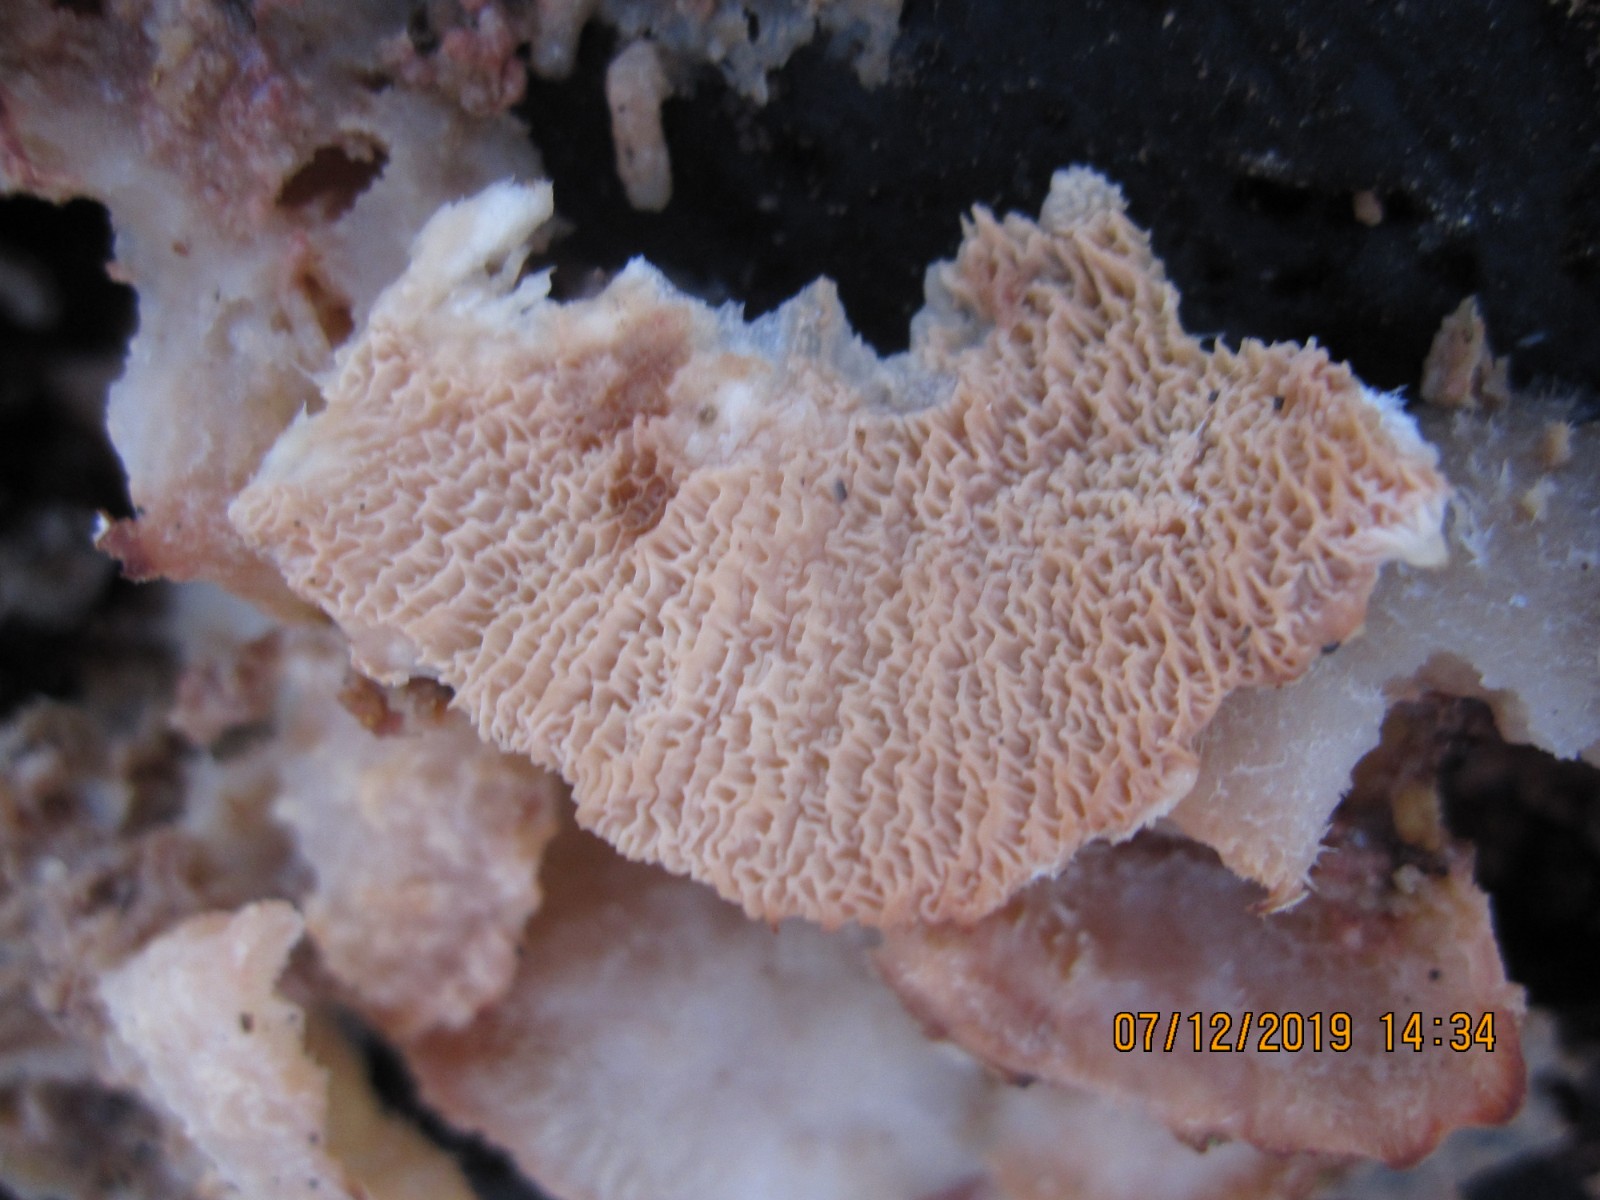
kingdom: Fungi
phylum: Basidiomycota
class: Agaricomycetes
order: Polyporales
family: Meruliaceae
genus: Phlebia
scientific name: Phlebia tremellosa
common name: bævrende åresvamp
